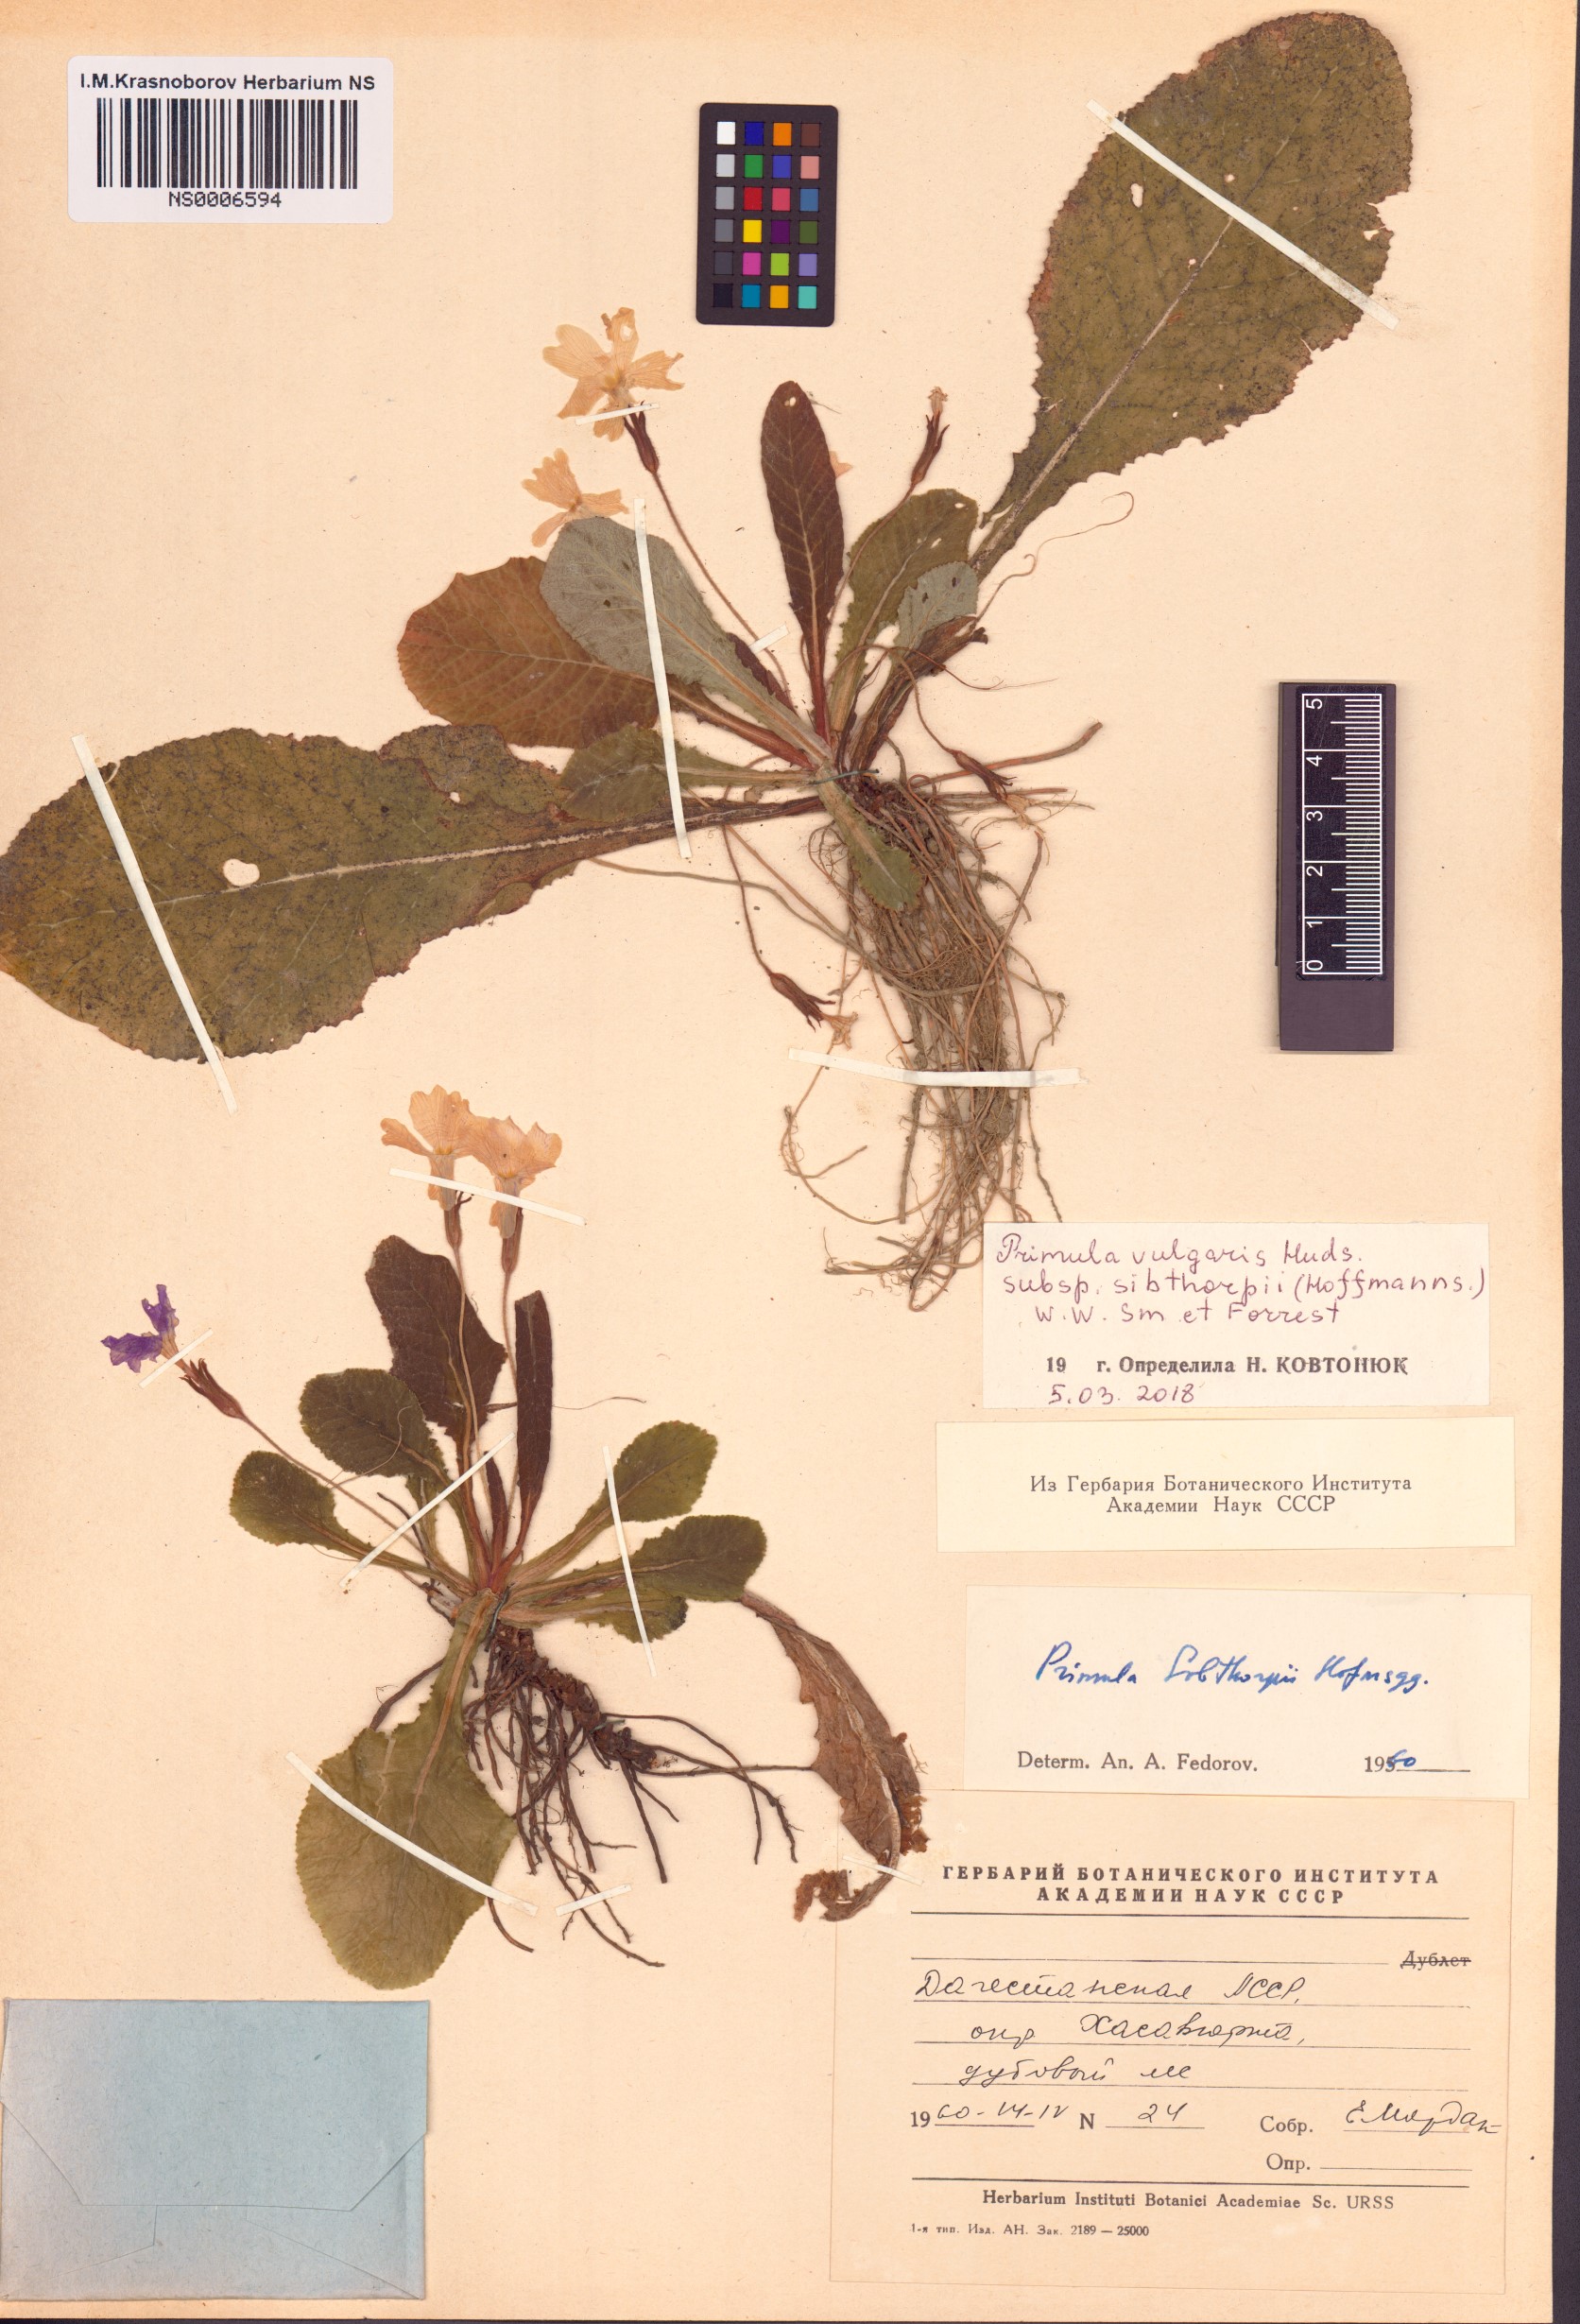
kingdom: Plantae
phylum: Tracheophyta
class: Magnoliopsida
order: Ericales
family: Primulaceae
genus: Primula
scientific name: Primula vulgaris
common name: Primrose
